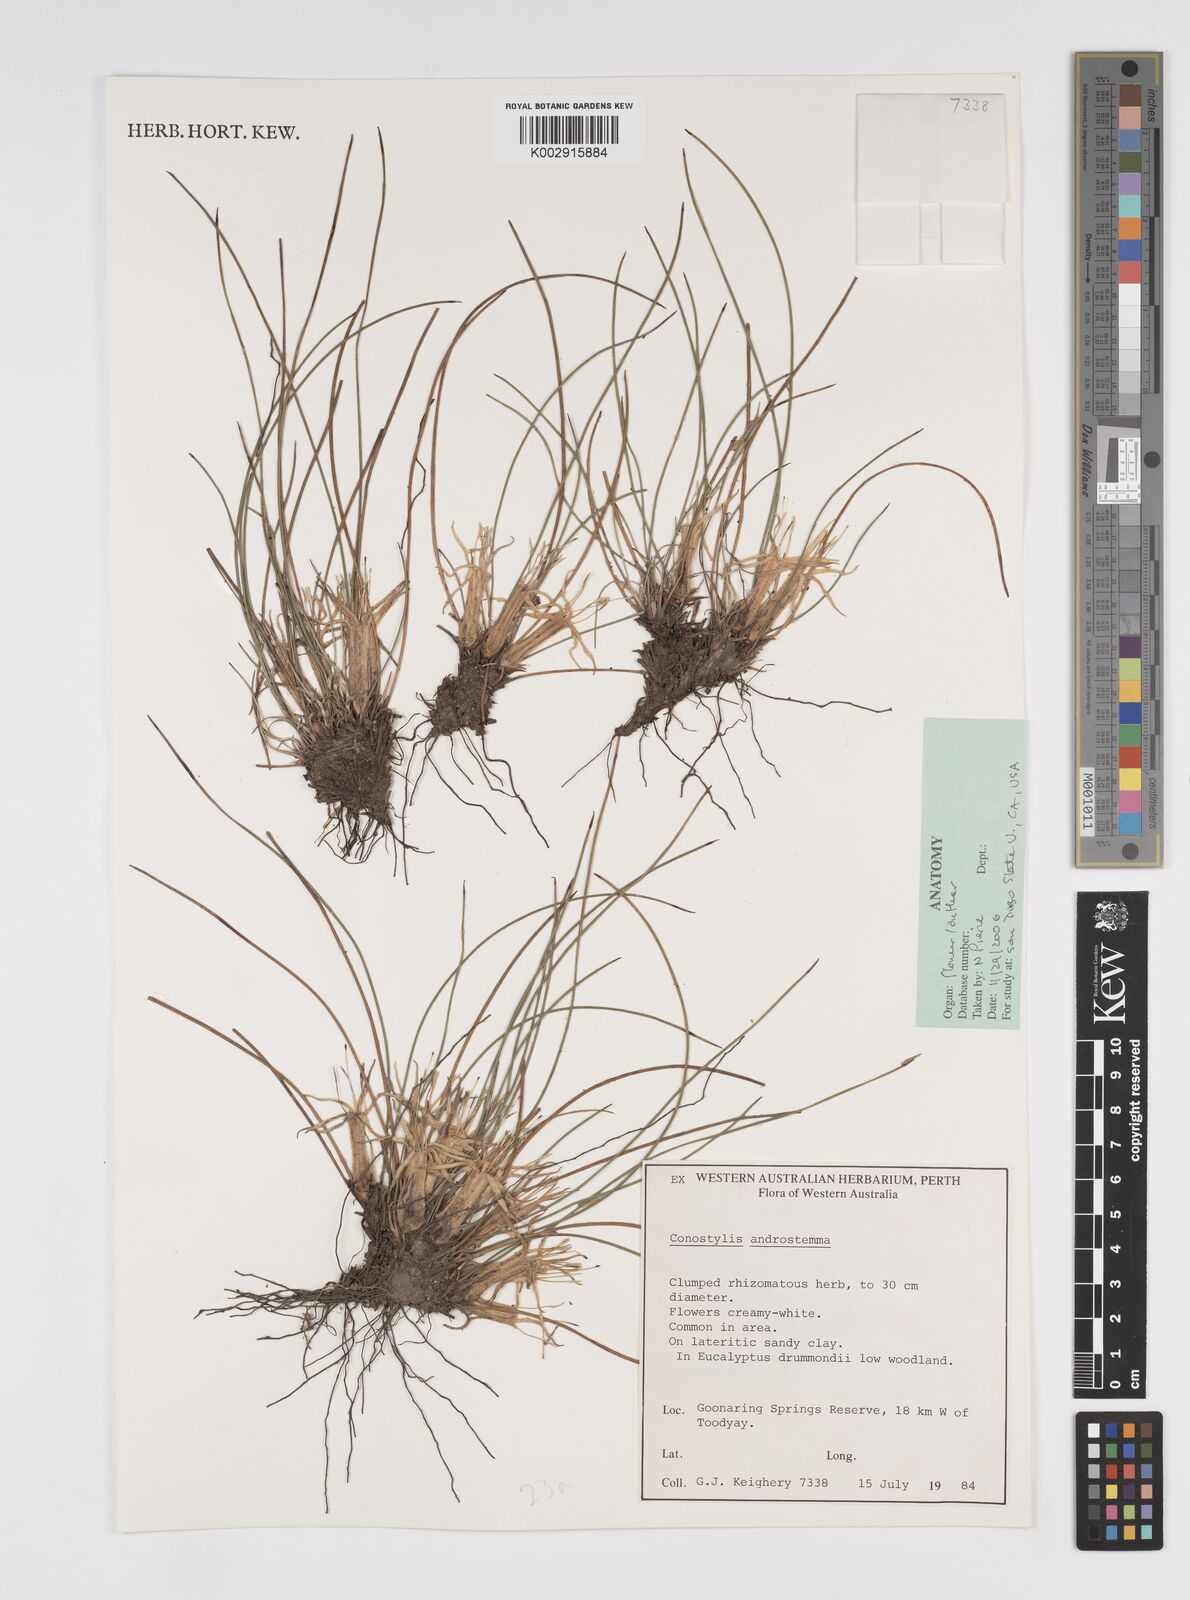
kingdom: Plantae
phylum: Tracheophyta
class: Liliopsida
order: Commelinales
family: Haemodoraceae
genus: Conostylis
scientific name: Conostylis androstemma
